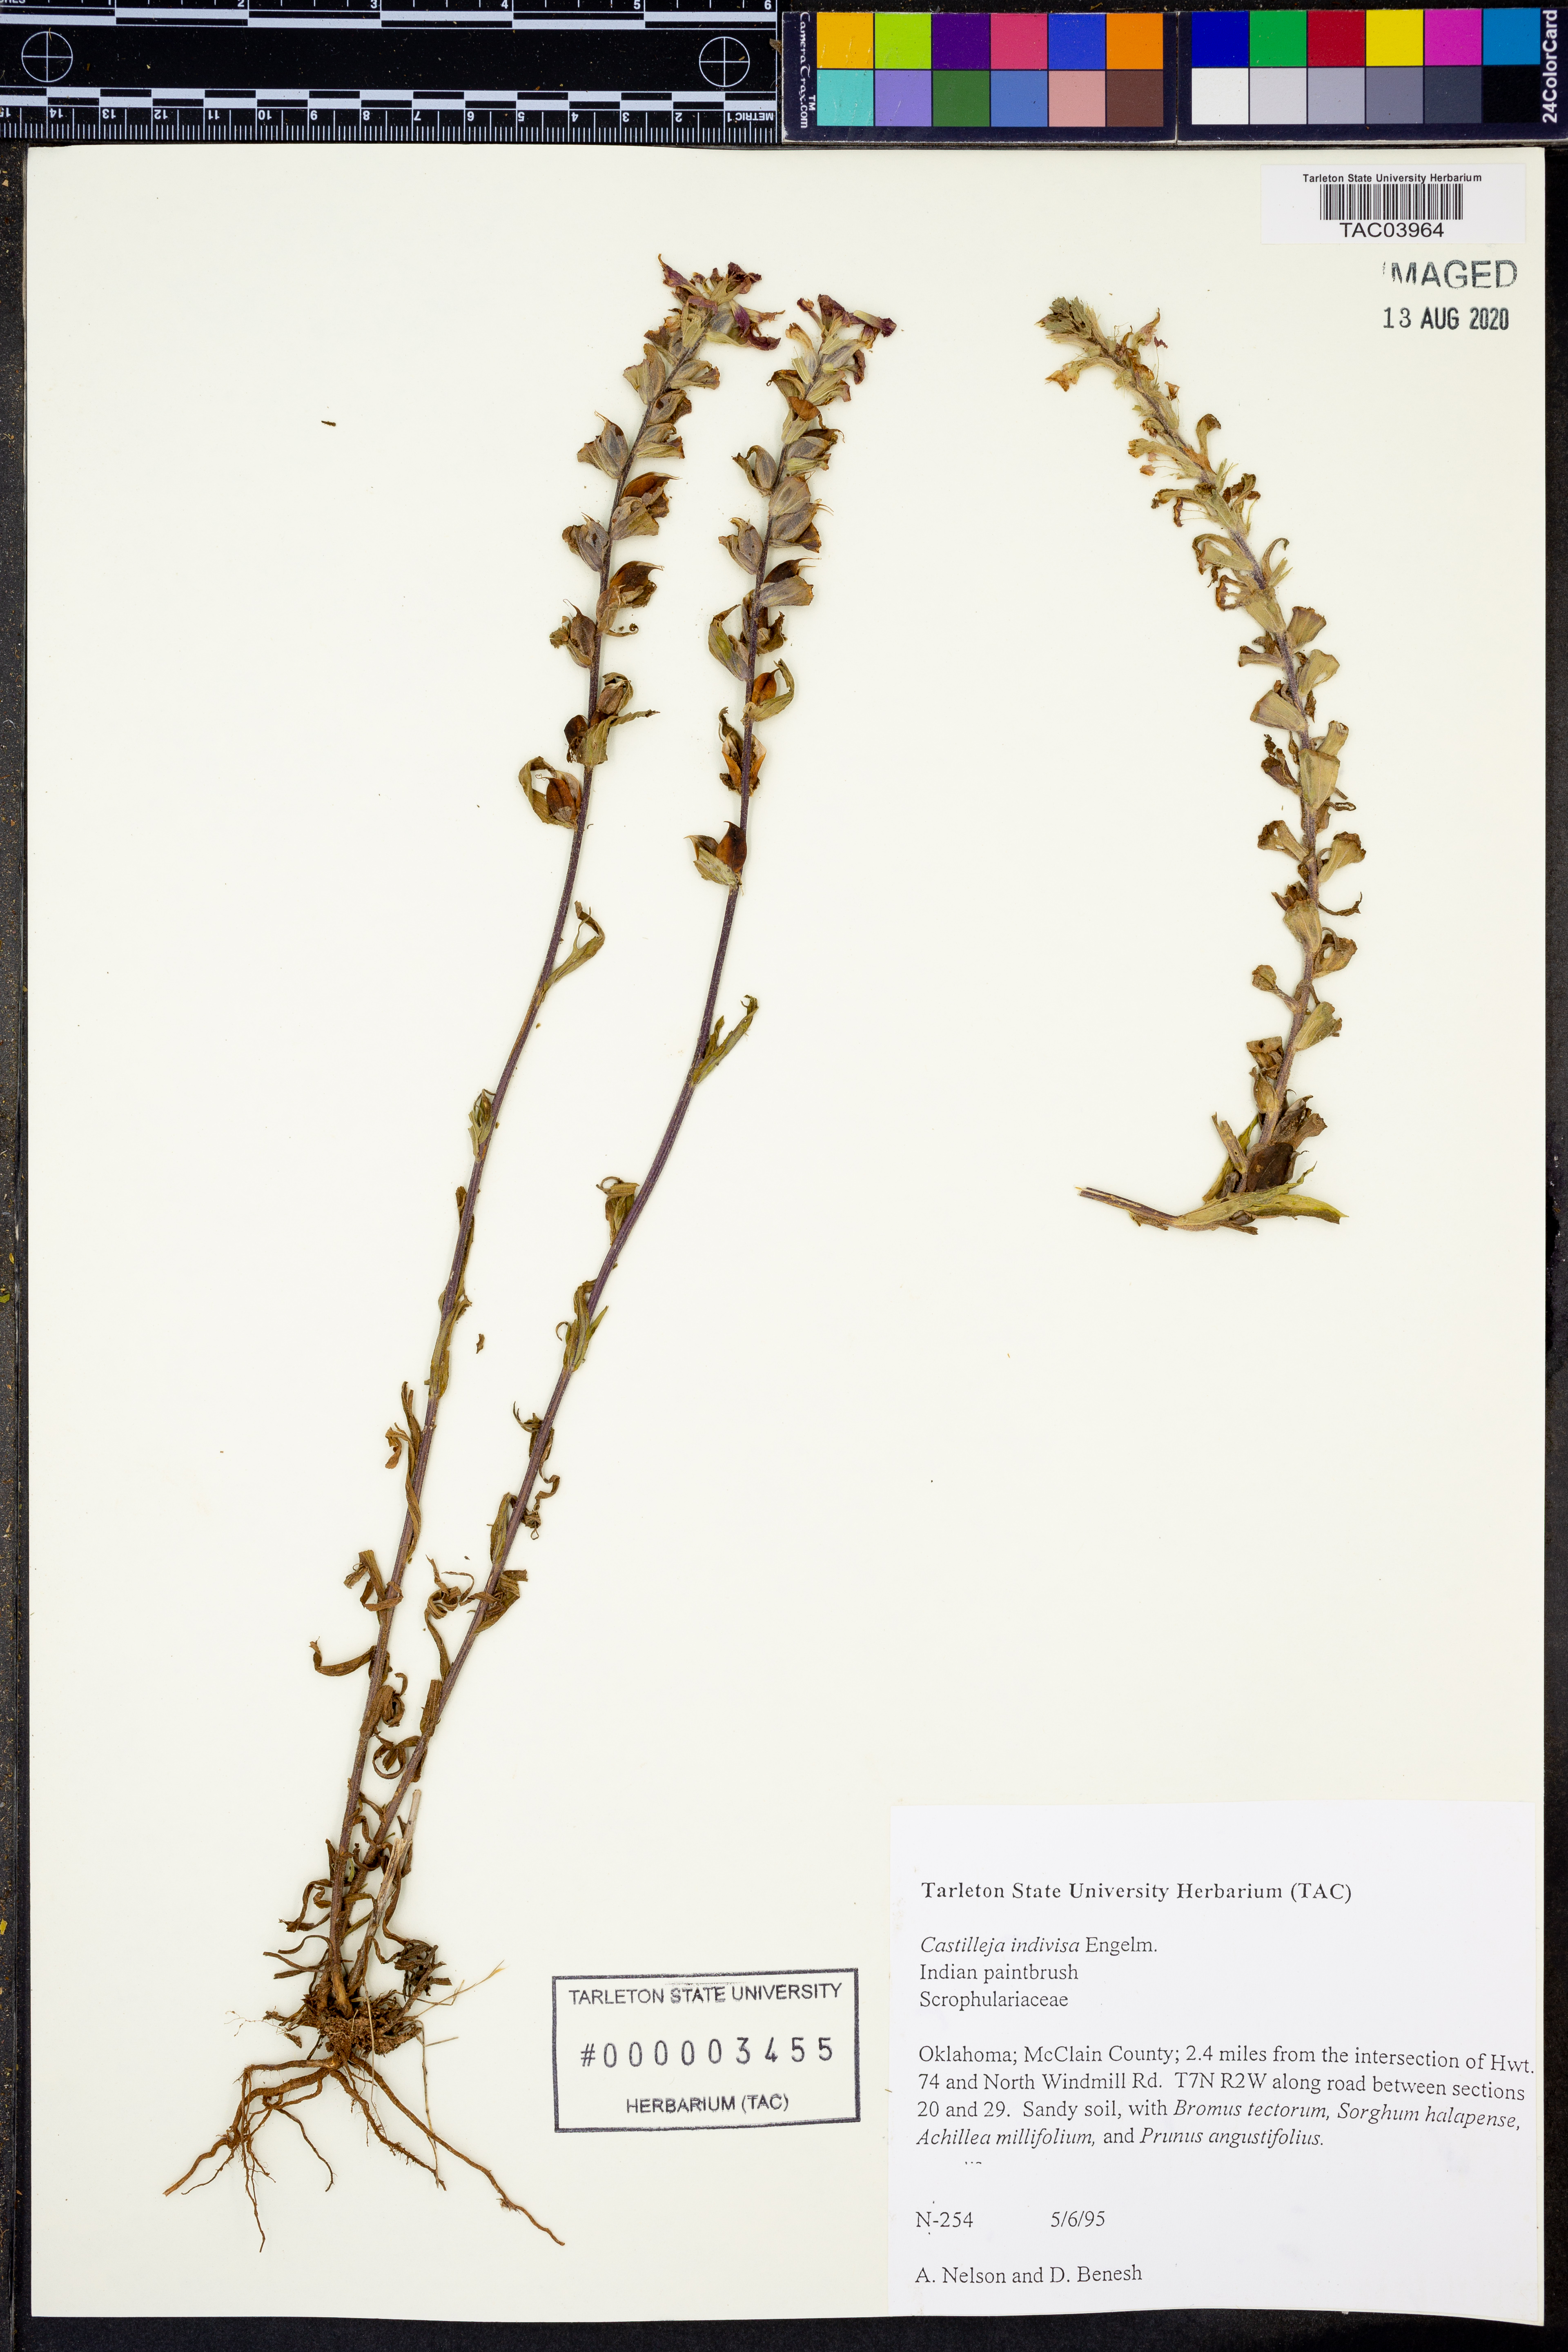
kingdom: Plantae
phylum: Tracheophyta
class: Magnoliopsida
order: Lamiales
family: Orobanchaceae
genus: Castilleja
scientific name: Castilleja indivisa
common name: Texas paintbrush
